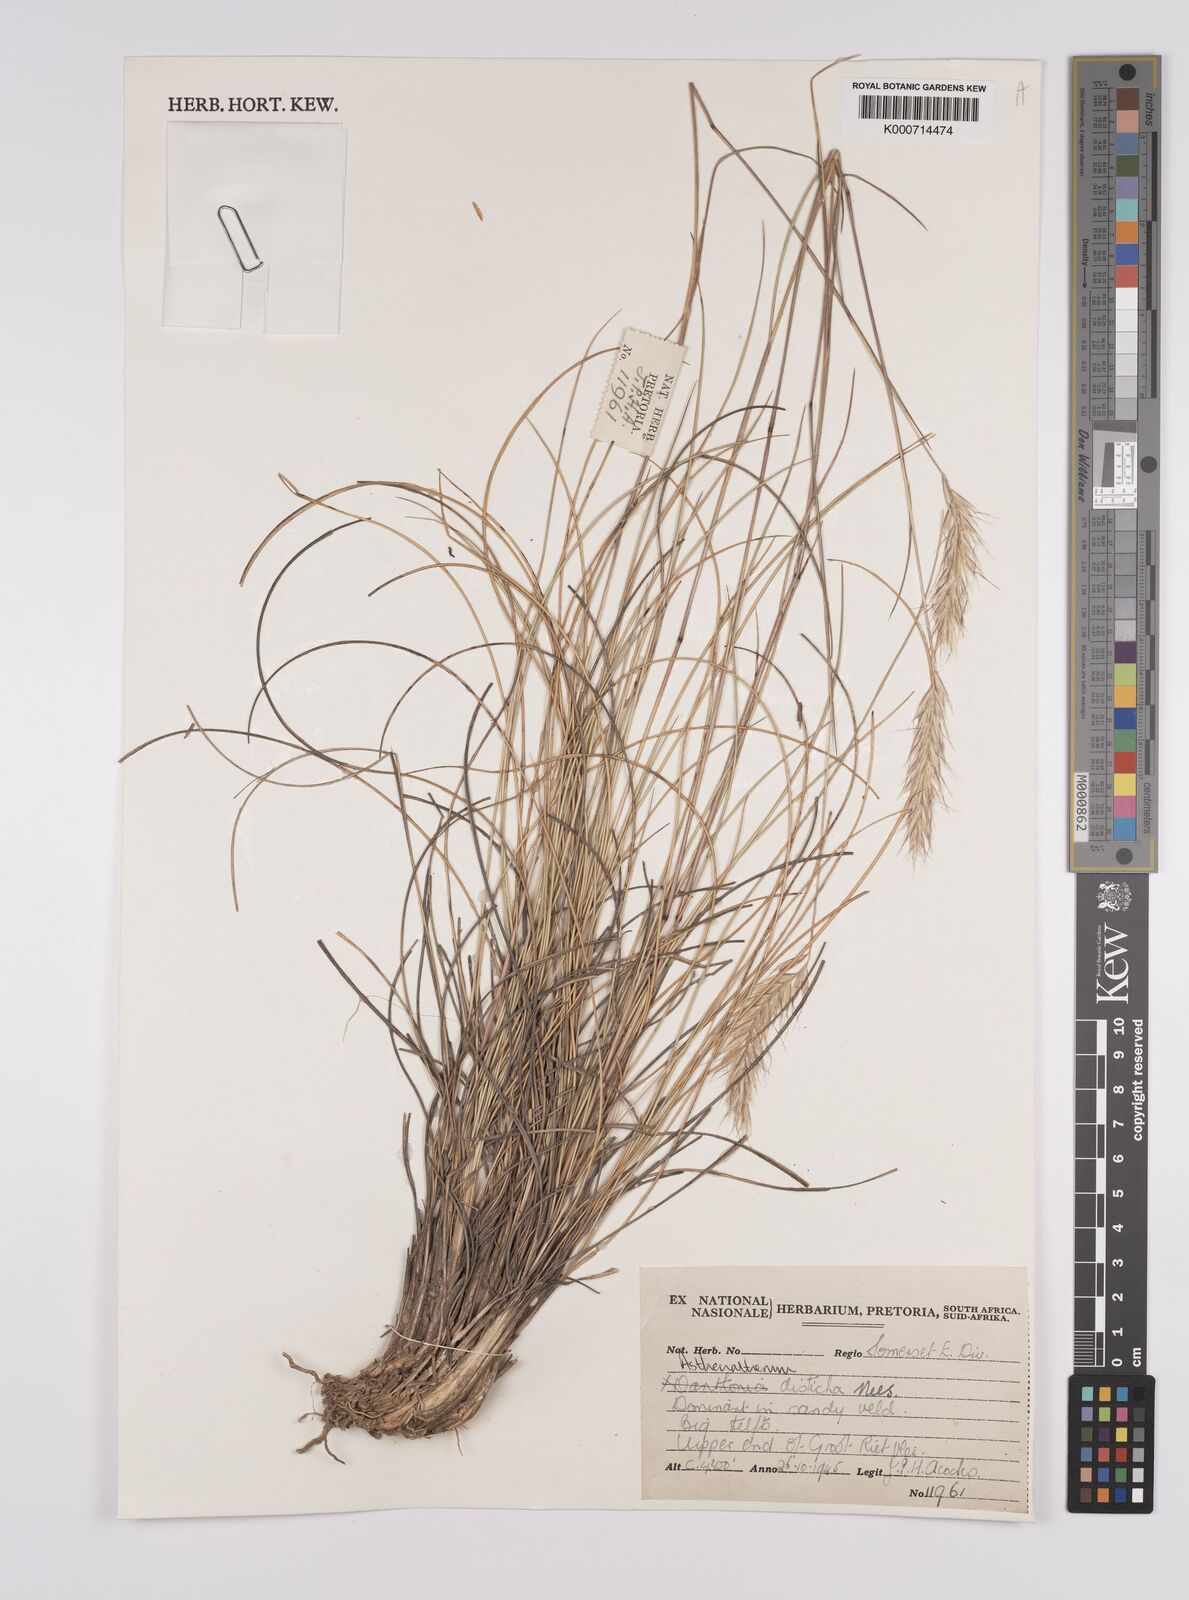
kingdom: Plantae
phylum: Tracheophyta
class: Liliopsida
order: Poales
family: Poaceae
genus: Tenaxia
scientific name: Tenaxia disticha
